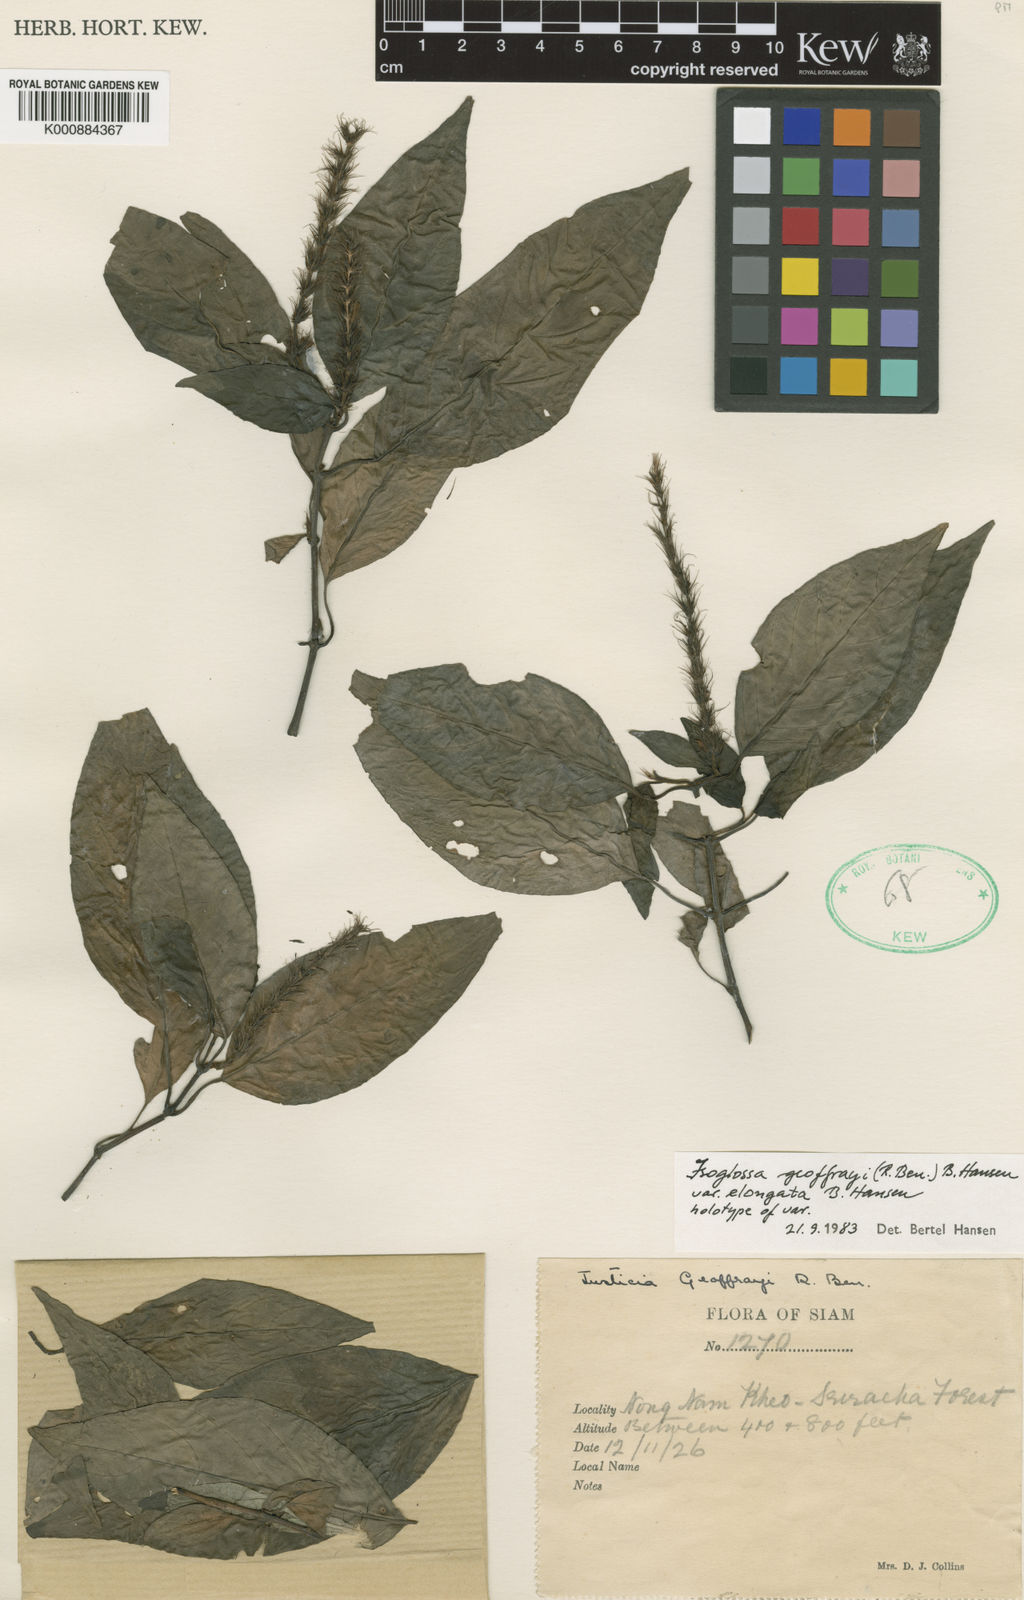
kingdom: Plantae
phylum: Tracheophyta
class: Magnoliopsida
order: Lamiales
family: Acanthaceae
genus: Isoglossa
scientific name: Isoglossa geoffrayi
